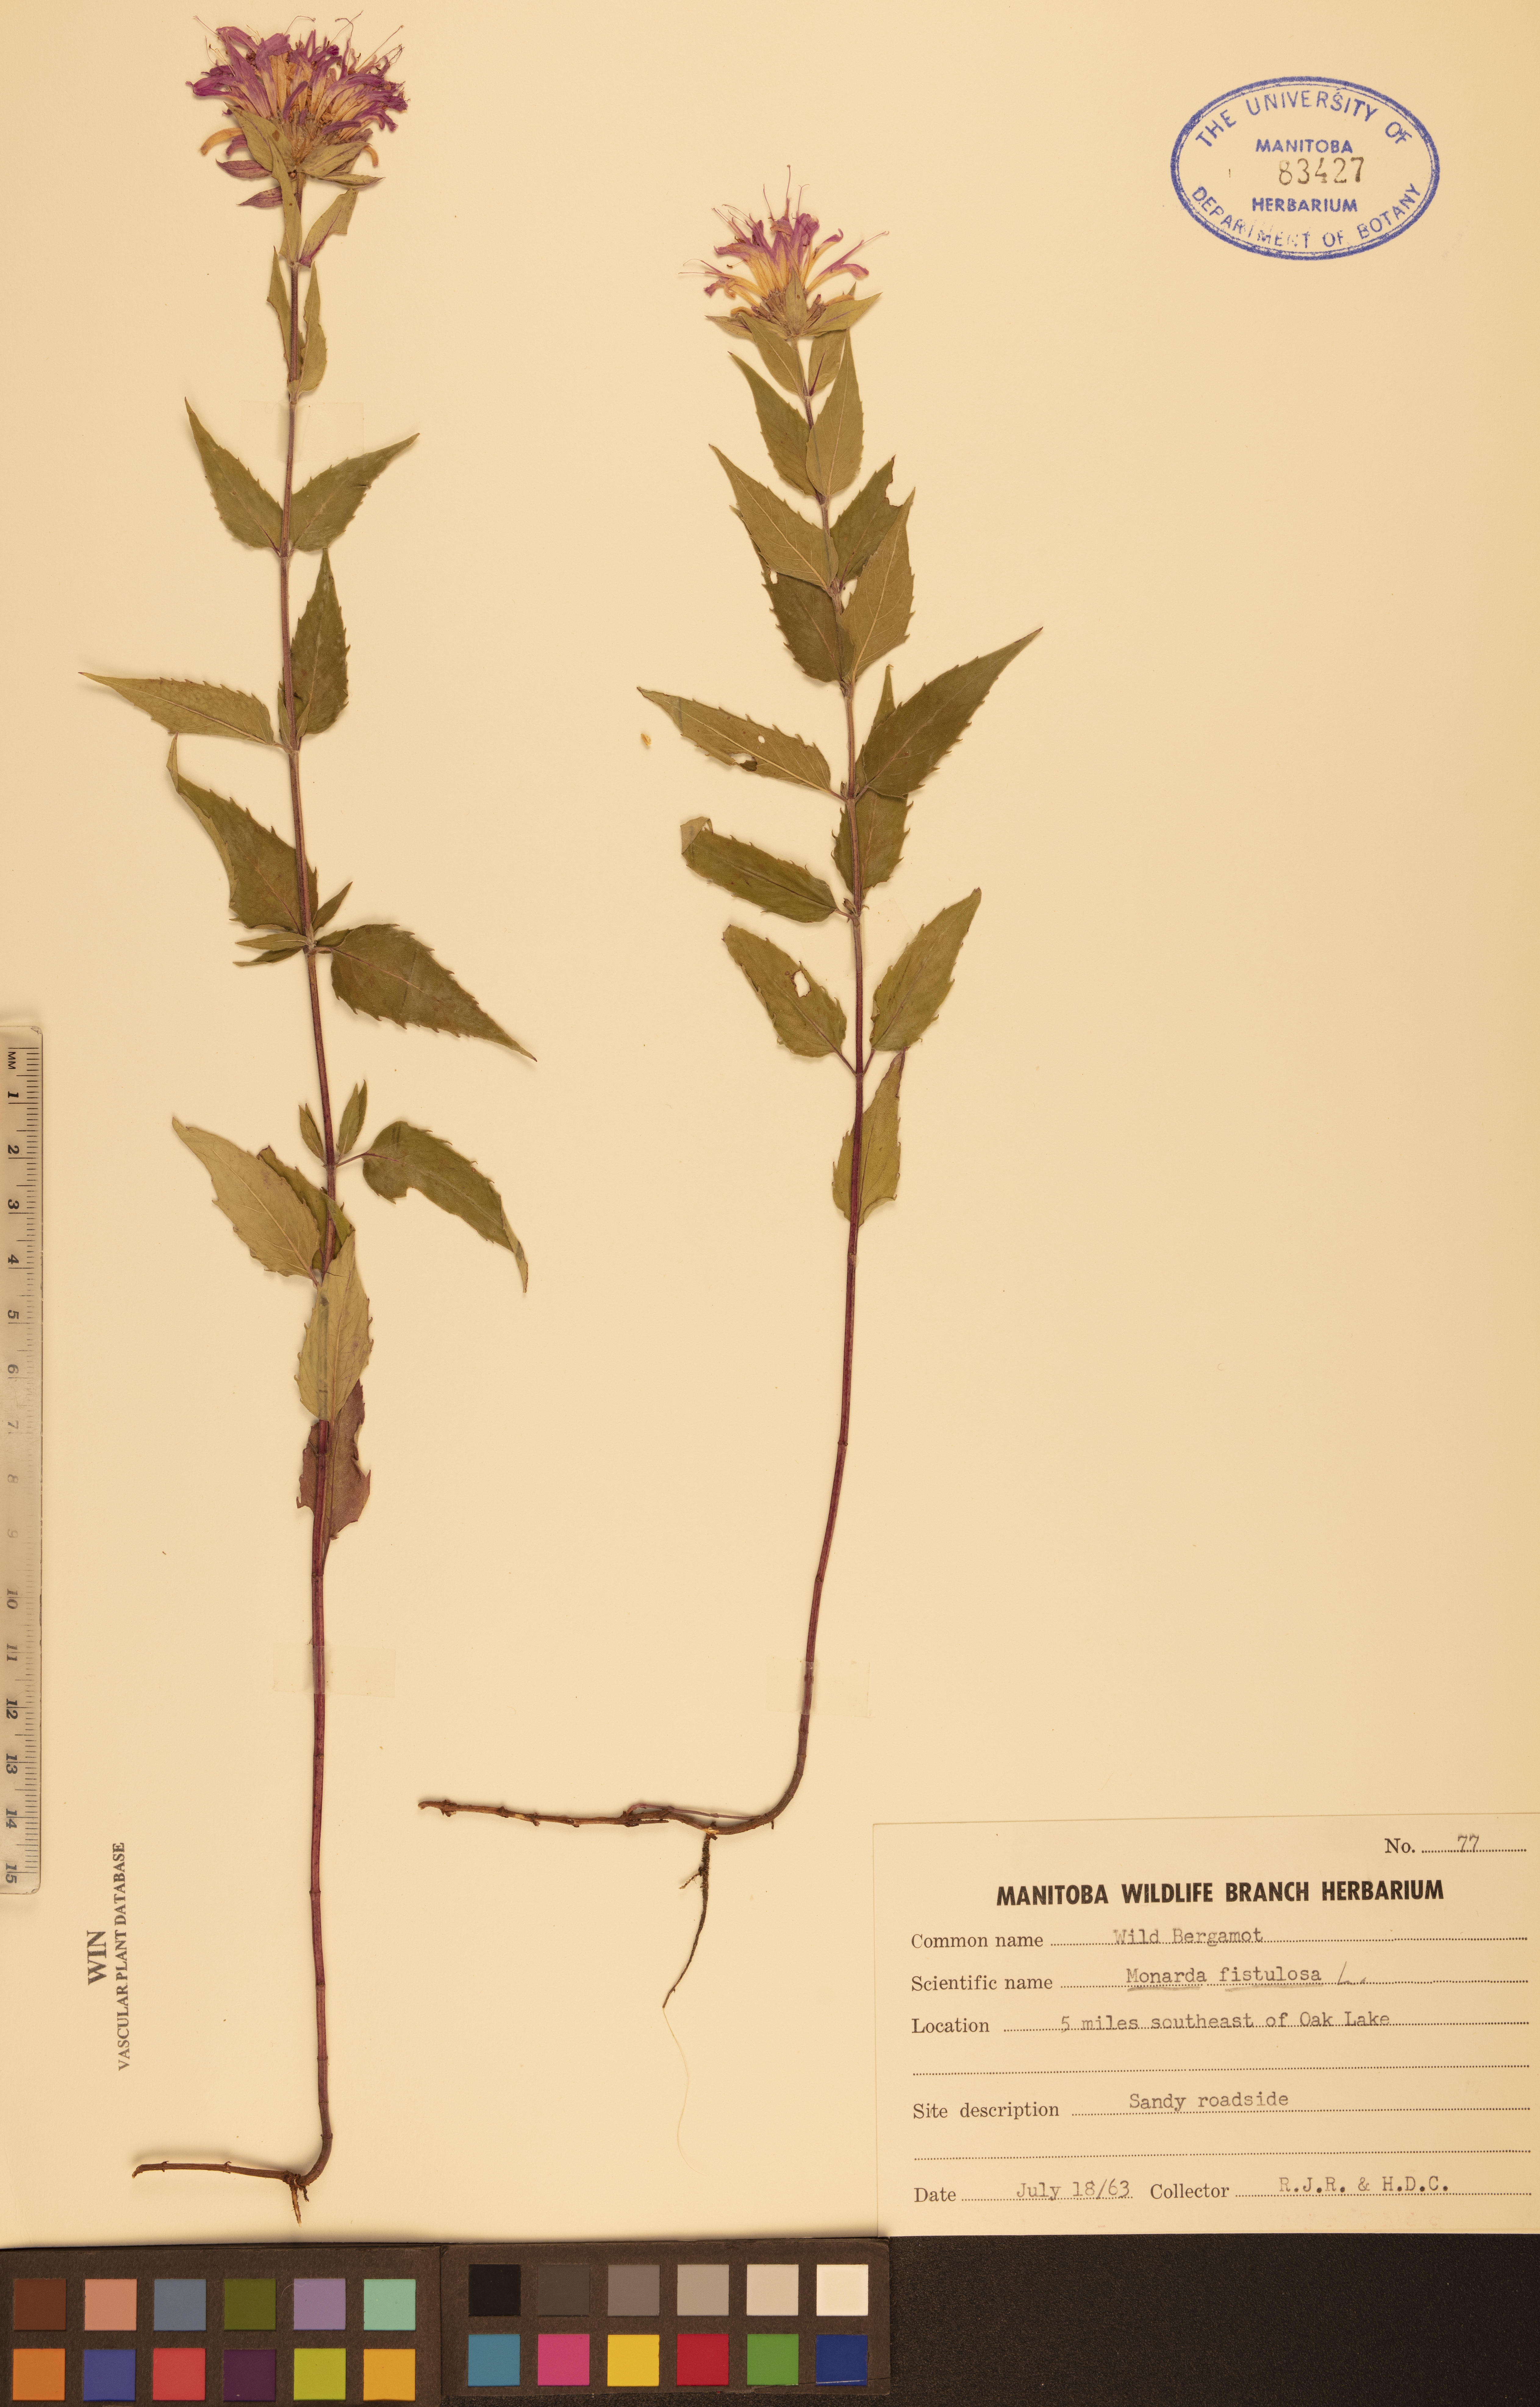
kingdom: Plantae
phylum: Tracheophyta
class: Magnoliopsida
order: Lamiales
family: Lamiaceae
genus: Monarda
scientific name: Monarda fistulosa
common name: Purple beebalm
